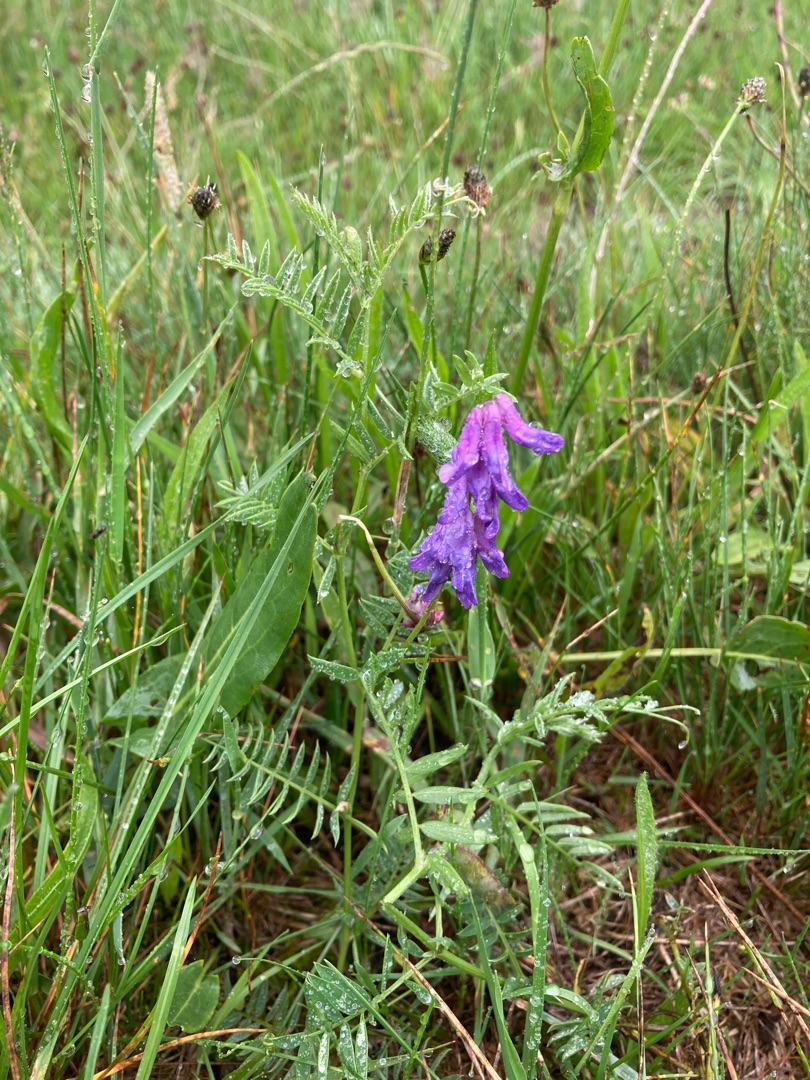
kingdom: Plantae
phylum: Tracheophyta
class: Magnoliopsida
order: Fabales
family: Fabaceae
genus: Vicia
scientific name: Vicia cracca
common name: Muse-vikke
